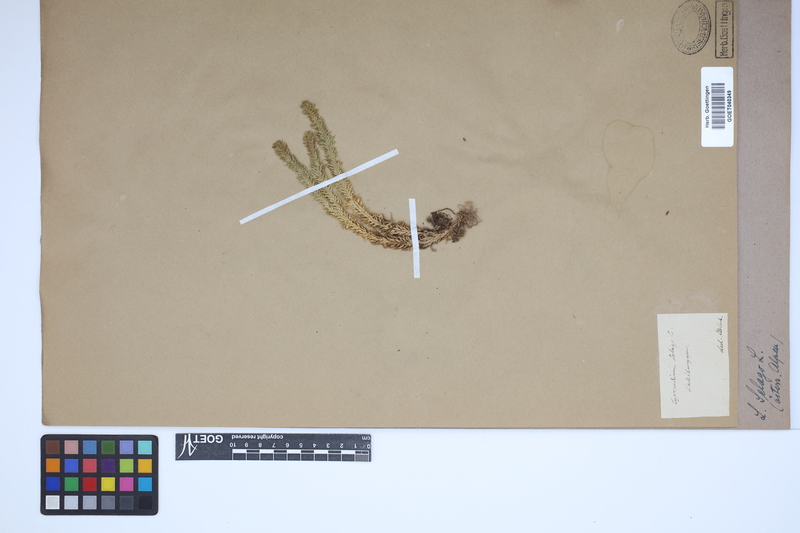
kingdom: Plantae
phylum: Tracheophyta
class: Lycopodiopsida
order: Lycopodiales
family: Lycopodiaceae
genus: Huperzia
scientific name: Huperzia selago
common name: Northern firmoss
